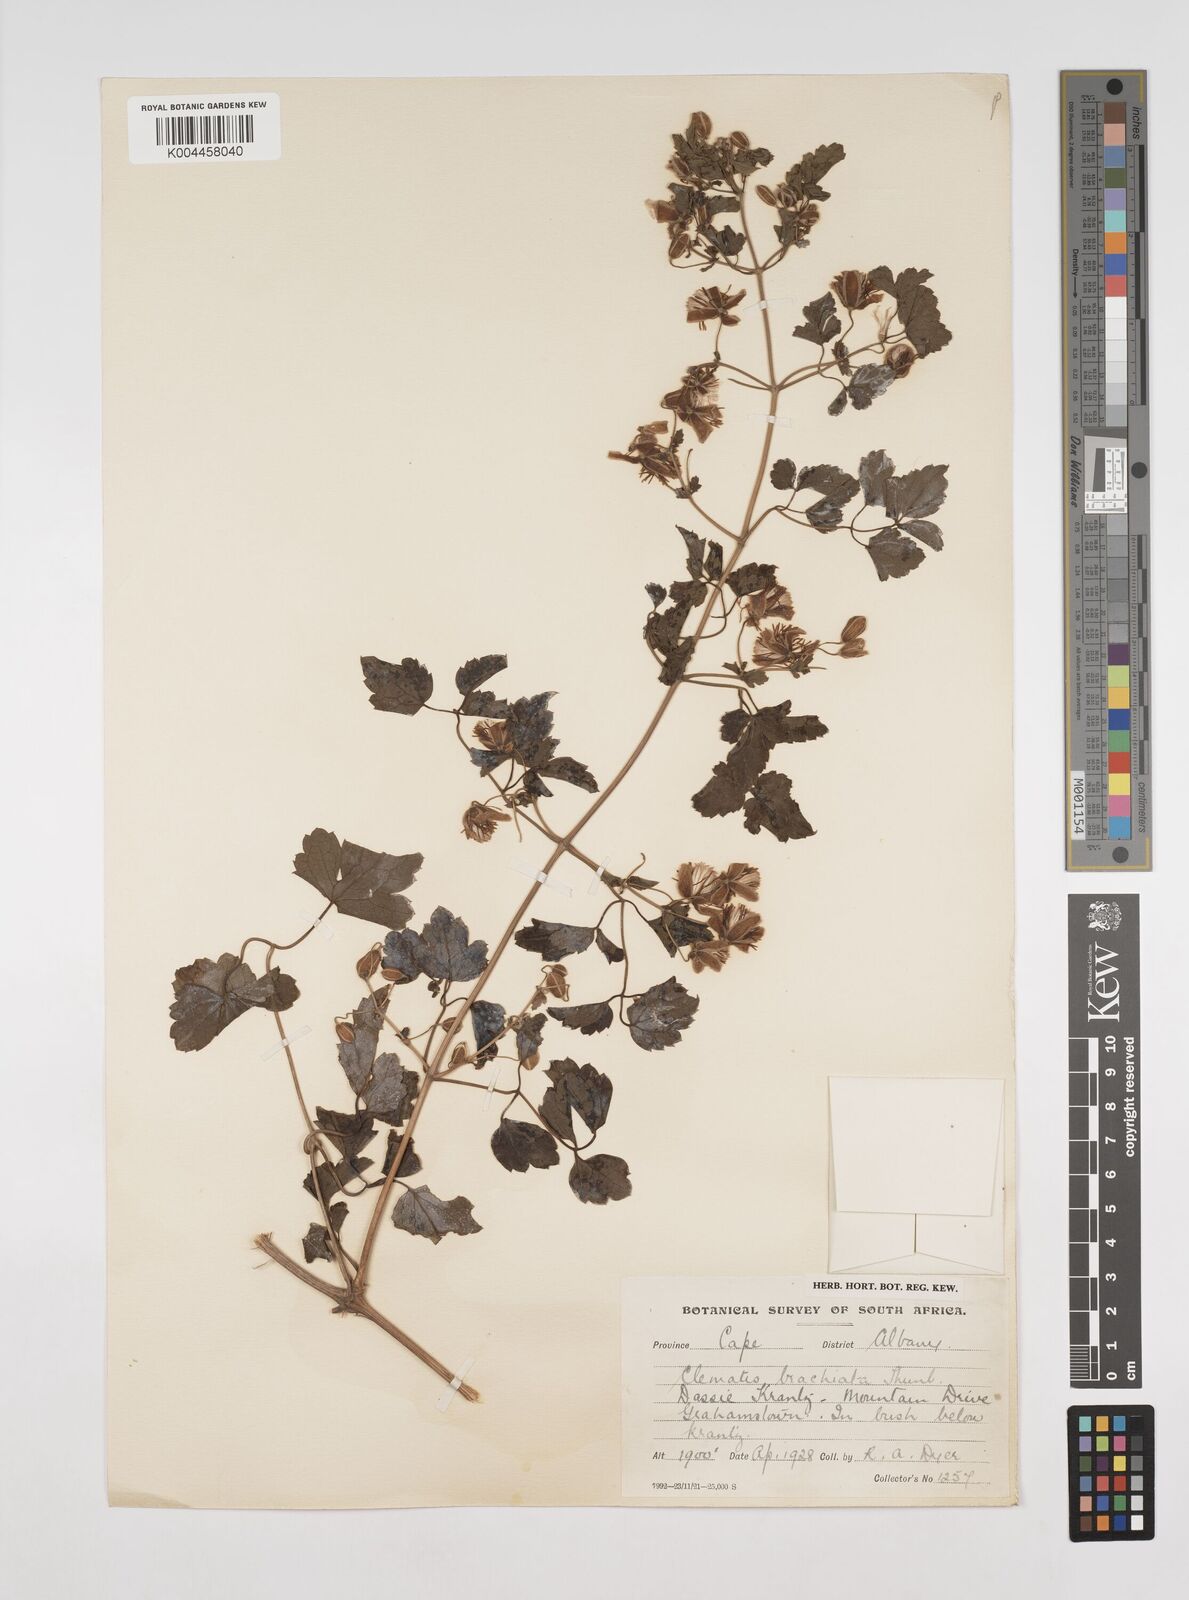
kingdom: Plantae
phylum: Tracheophyta
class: Magnoliopsida
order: Ranunculales
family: Ranunculaceae
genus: Clematis
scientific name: Clematis brachiata
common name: Traveler's-joy
